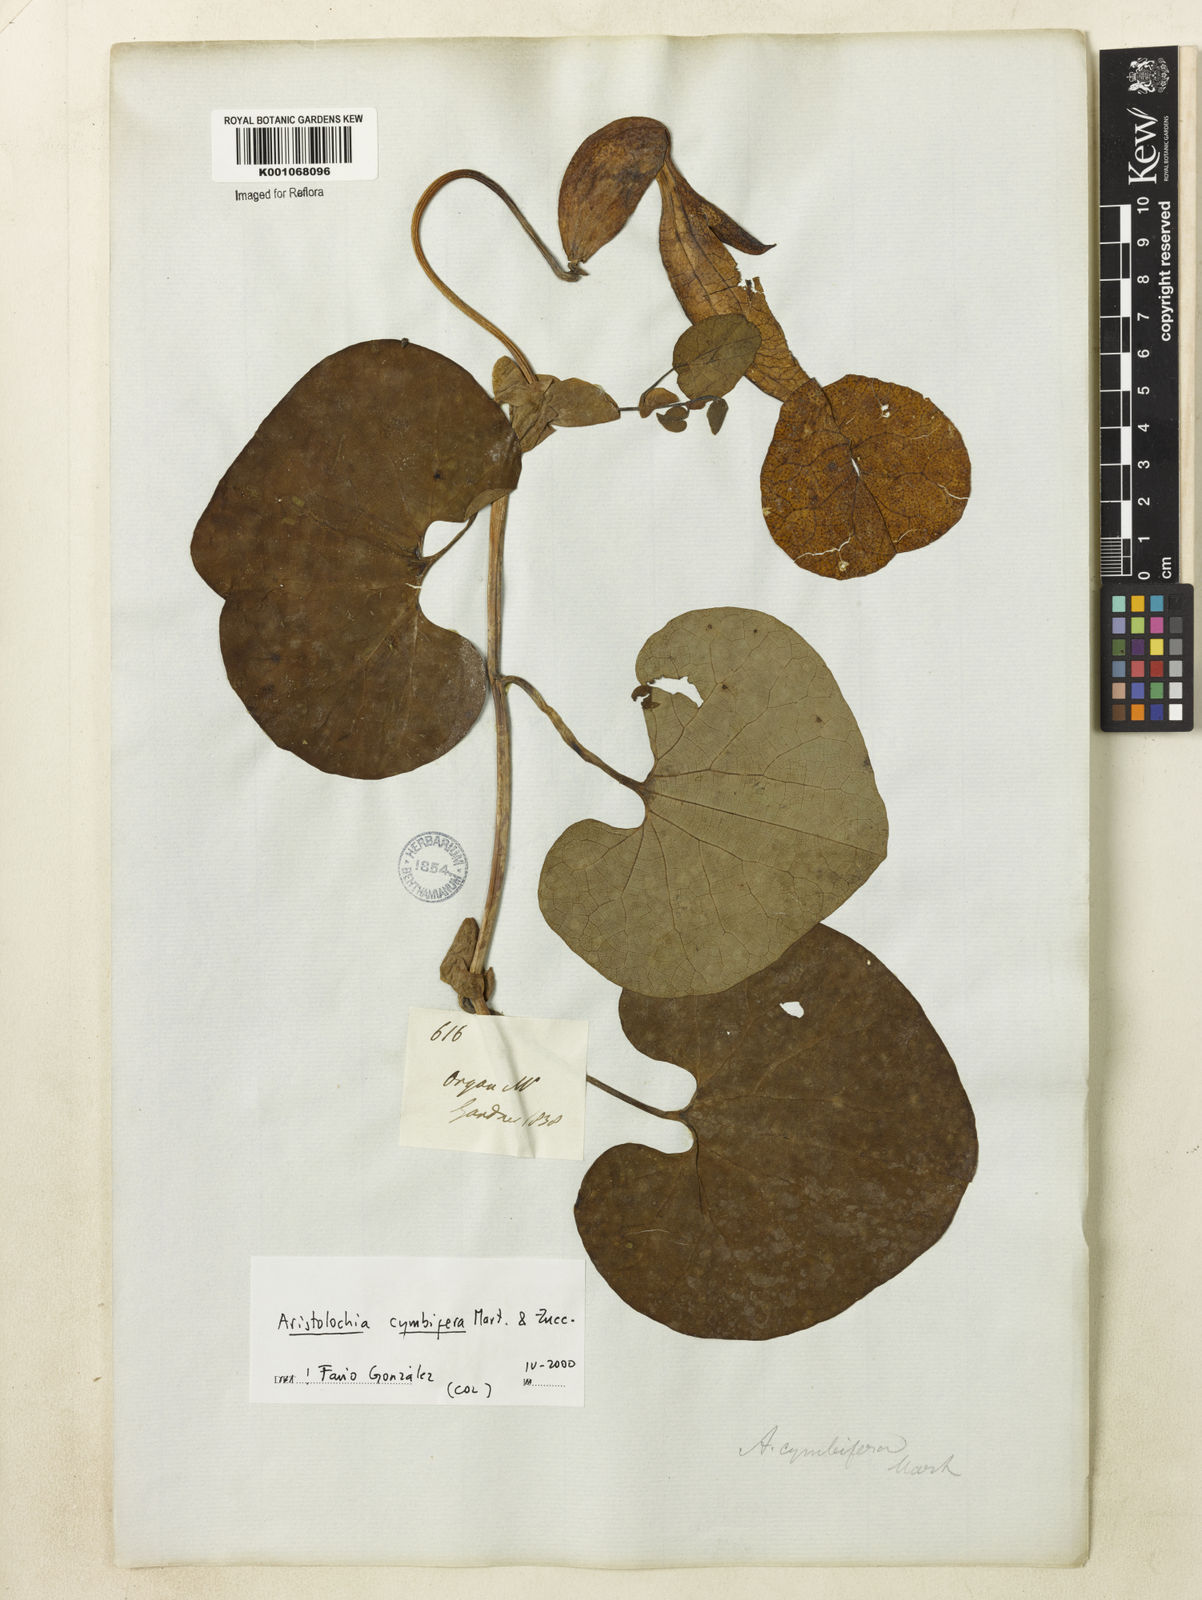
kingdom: Plantae
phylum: Tracheophyta
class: Magnoliopsida
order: Piperales
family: Aristolochiaceae
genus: Aristolochia
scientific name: Aristolochia cymbifera
